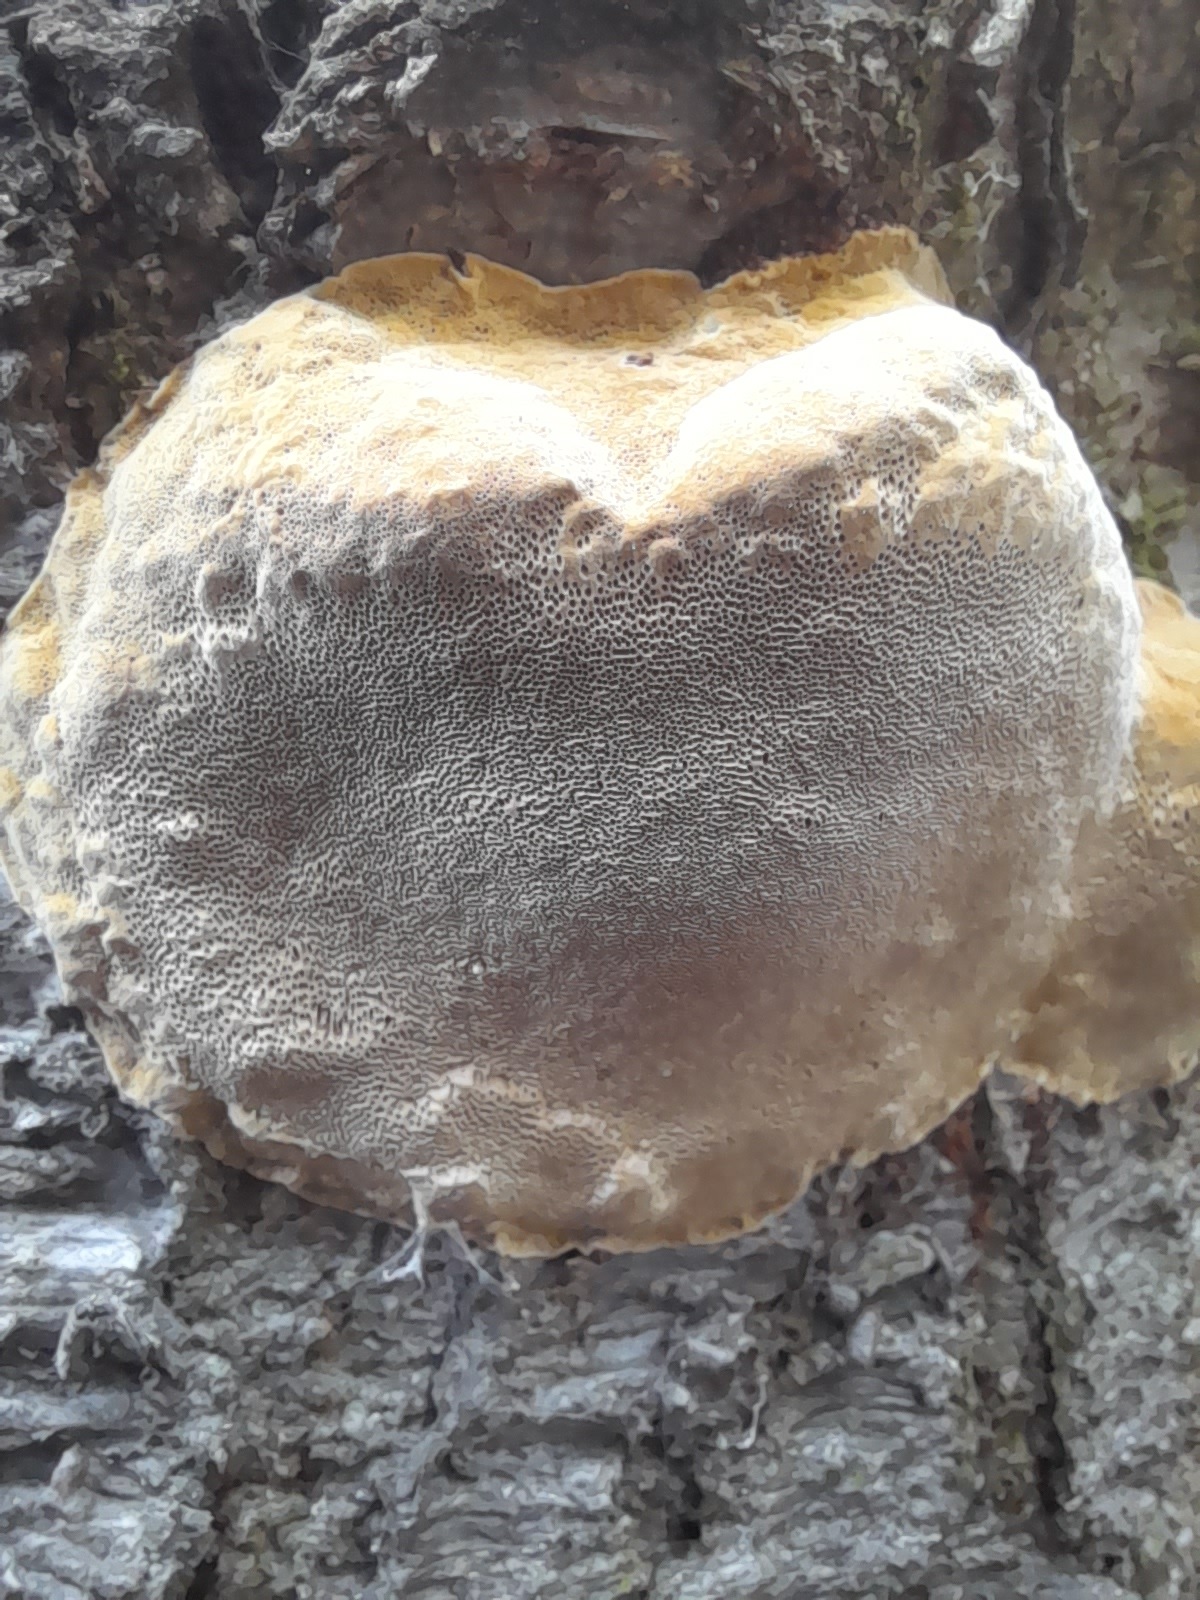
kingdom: Fungi
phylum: Basidiomycota
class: Agaricomycetes
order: Hymenochaetales
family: Hymenochaetaceae
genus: Phellinus
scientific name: Phellinus pomaceus
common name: blomme-ildporesvamp
